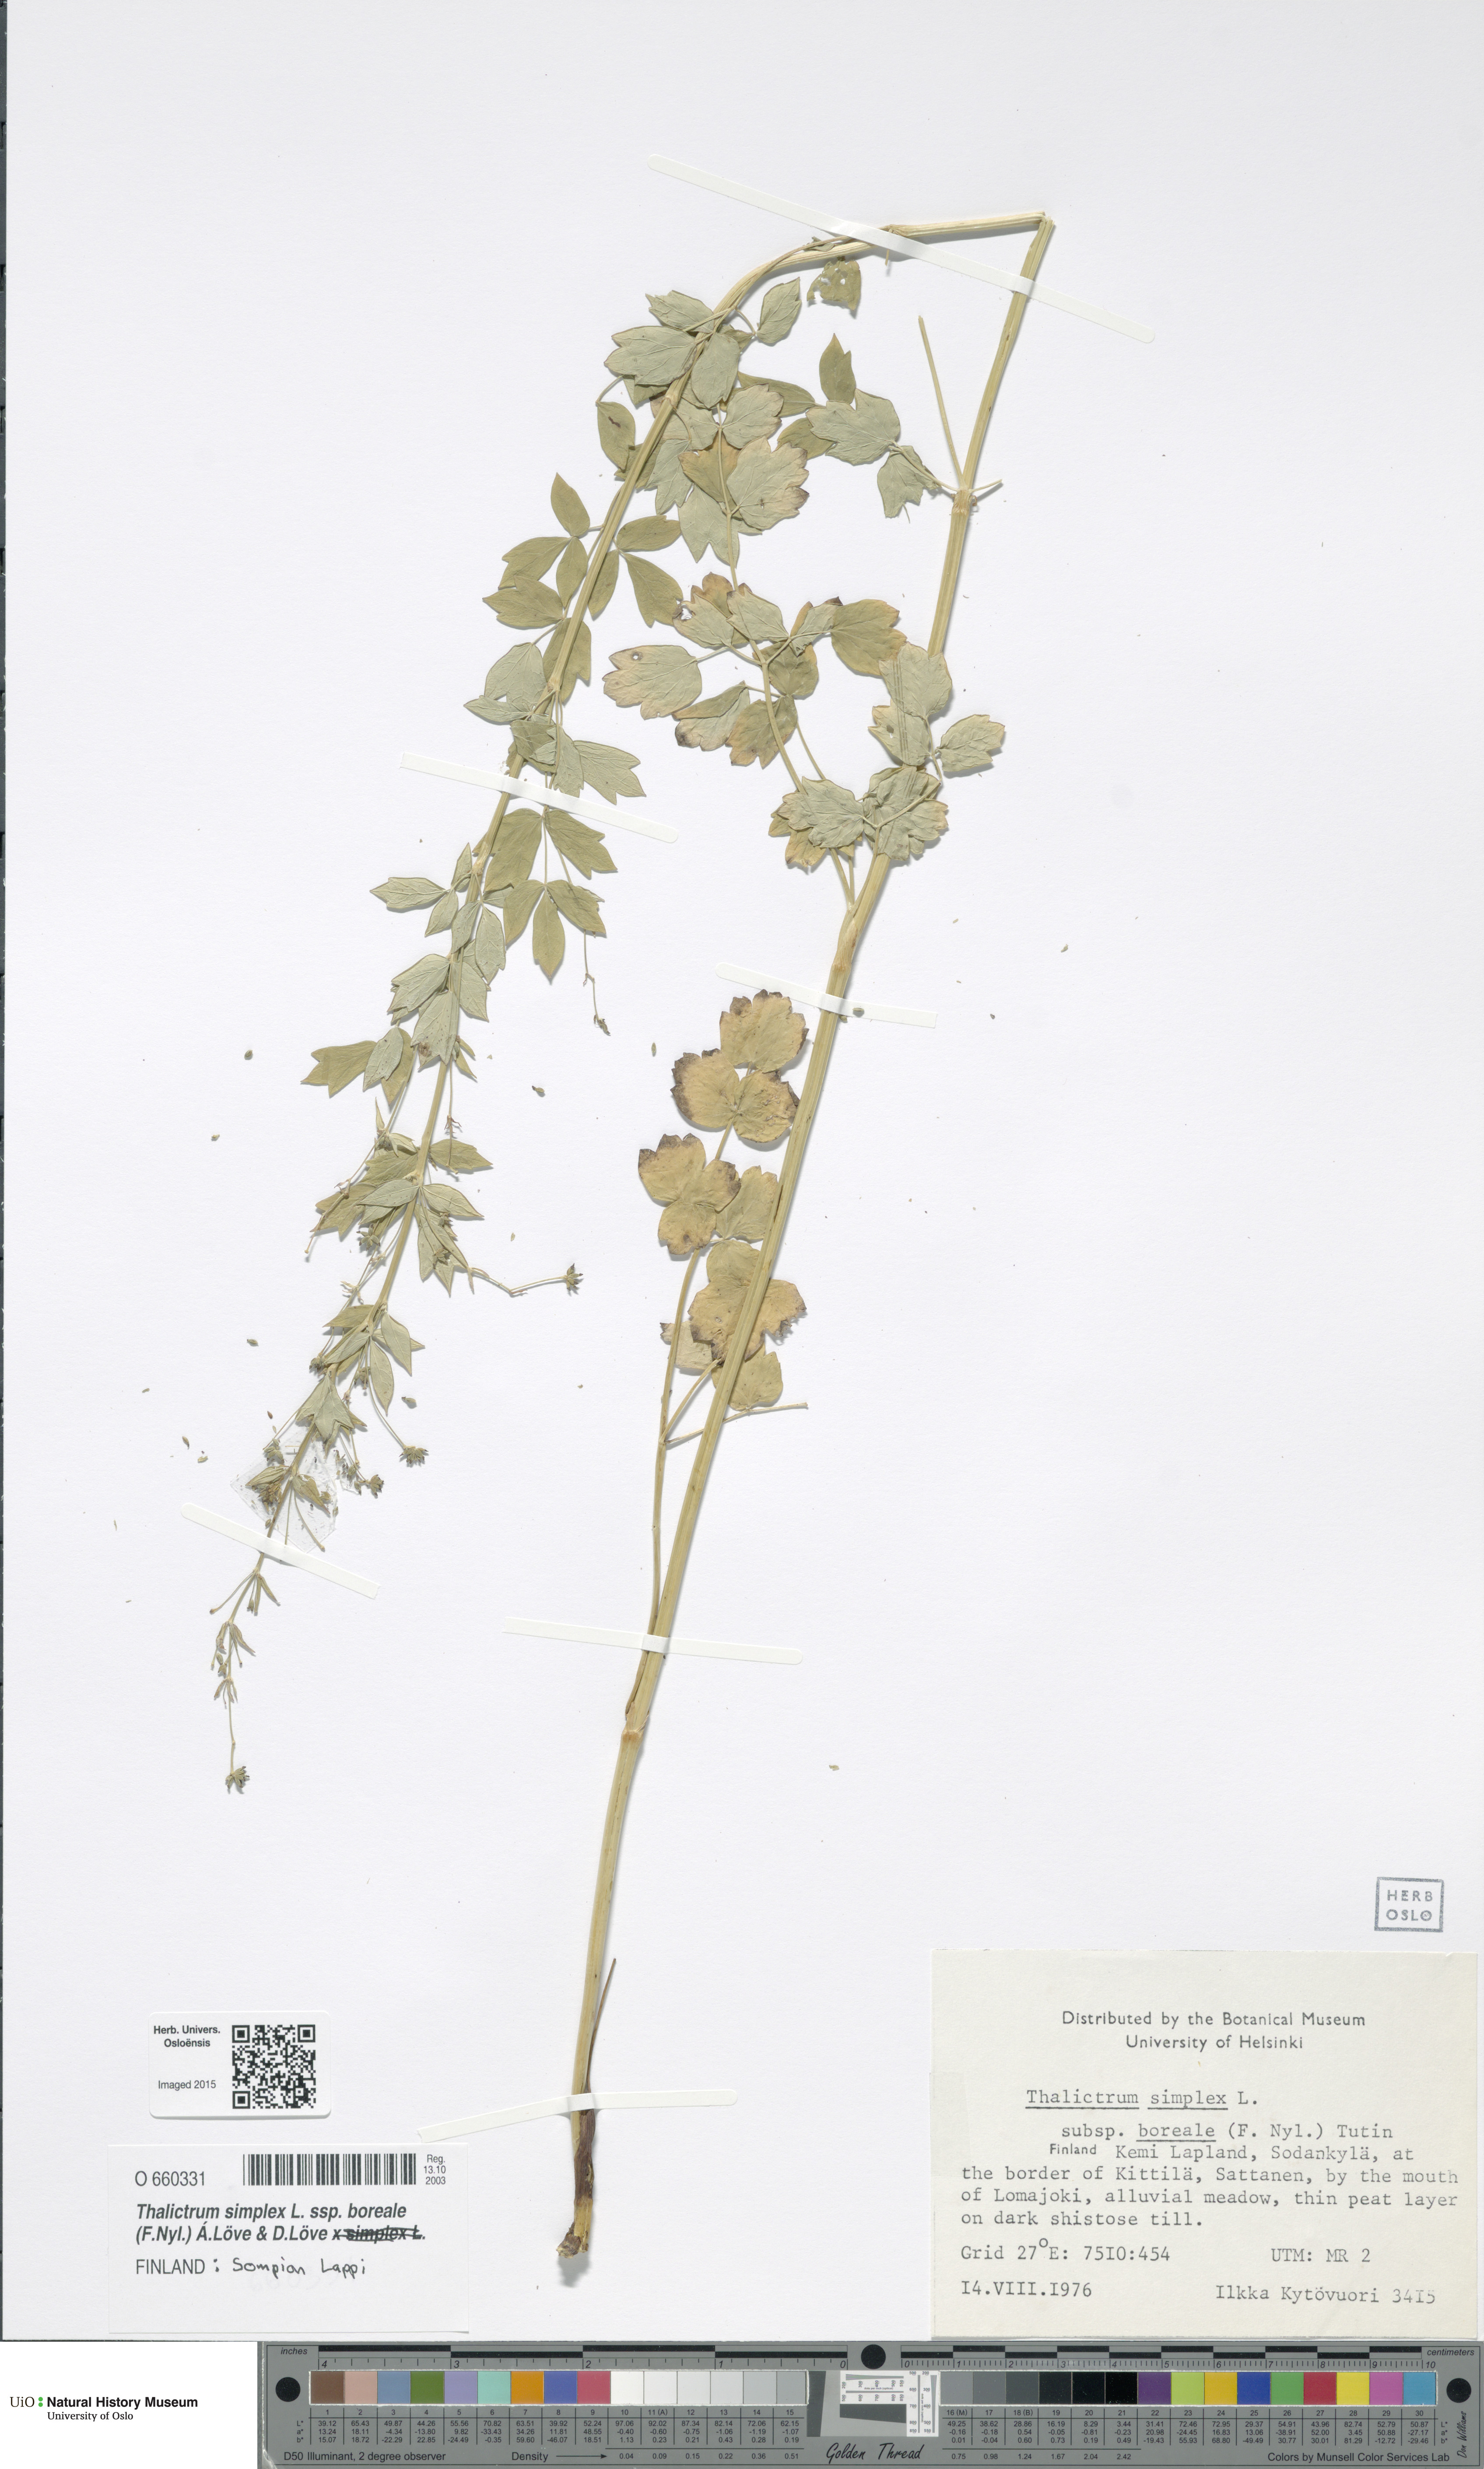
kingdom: Plantae
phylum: Tracheophyta
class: Magnoliopsida
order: Ranunculales
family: Ranunculaceae
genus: Thalictrum
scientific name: Thalictrum simplex
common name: Small meadow-rue
